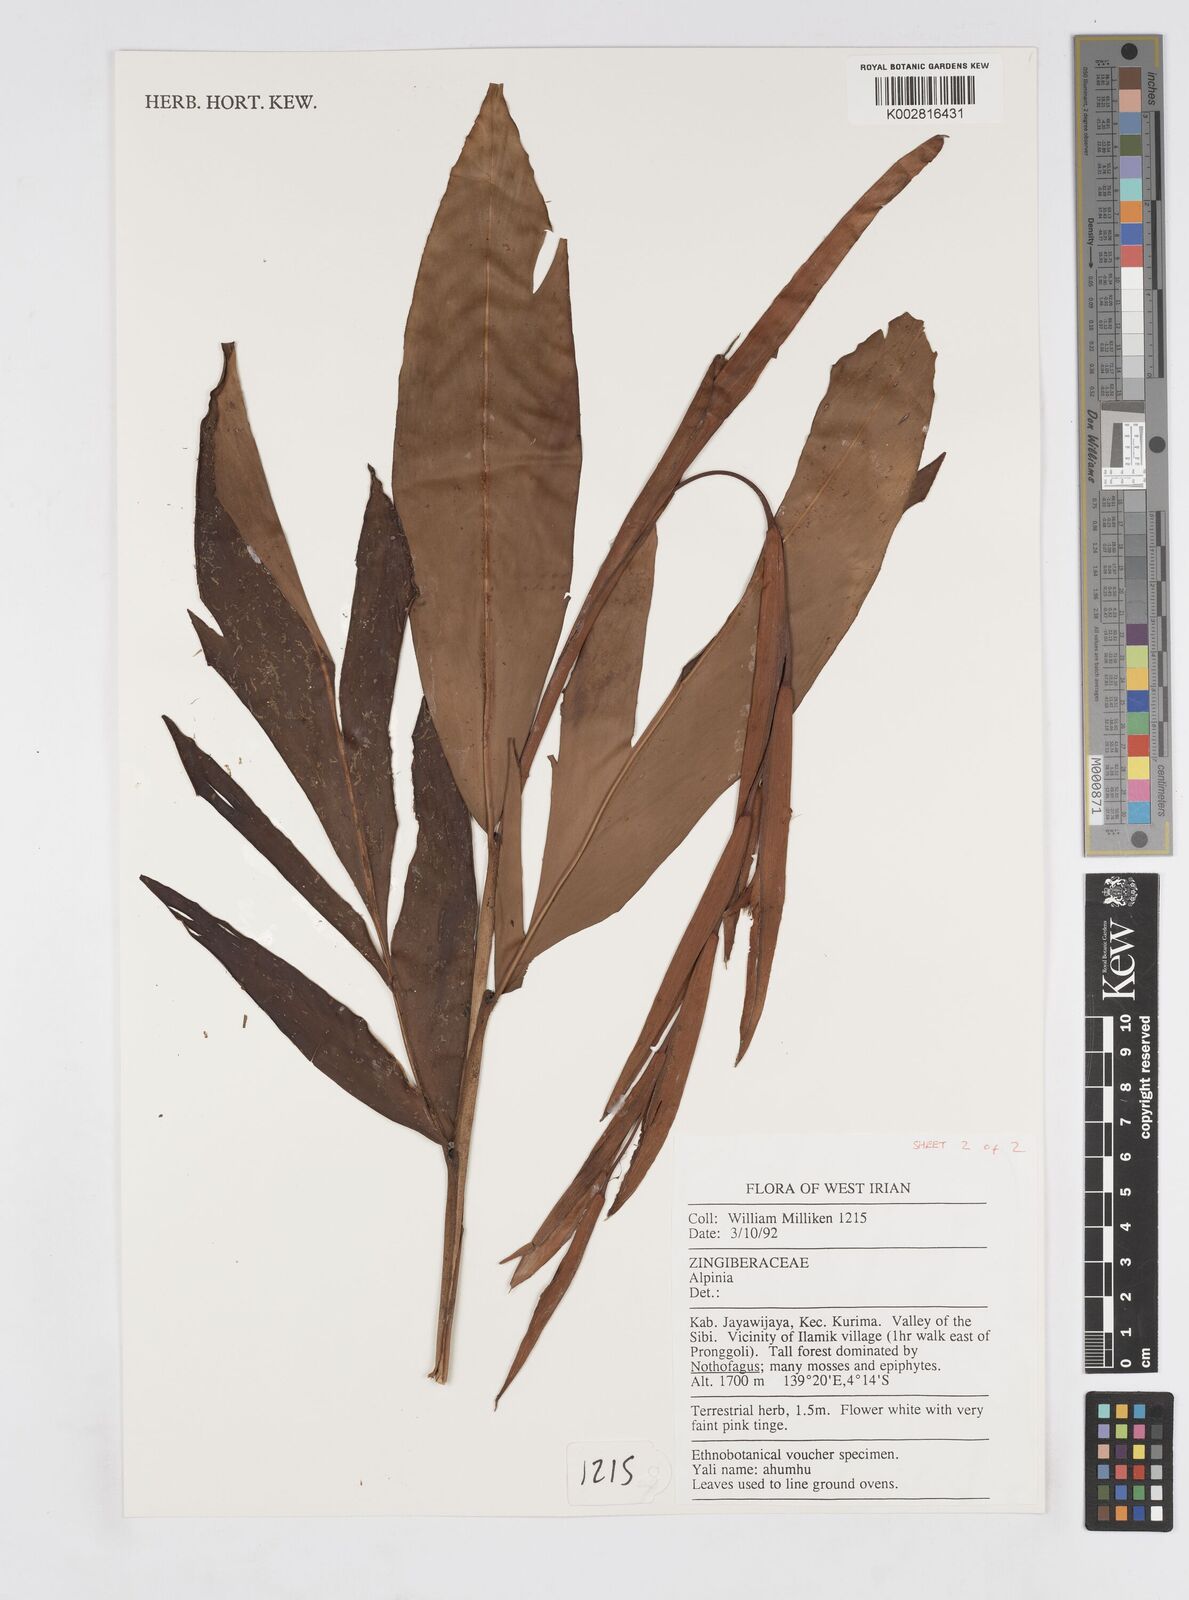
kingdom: Plantae
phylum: Tracheophyta
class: Liliopsida
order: Zingiberales
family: Zingiberaceae
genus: Alpinia
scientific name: Alpinia
